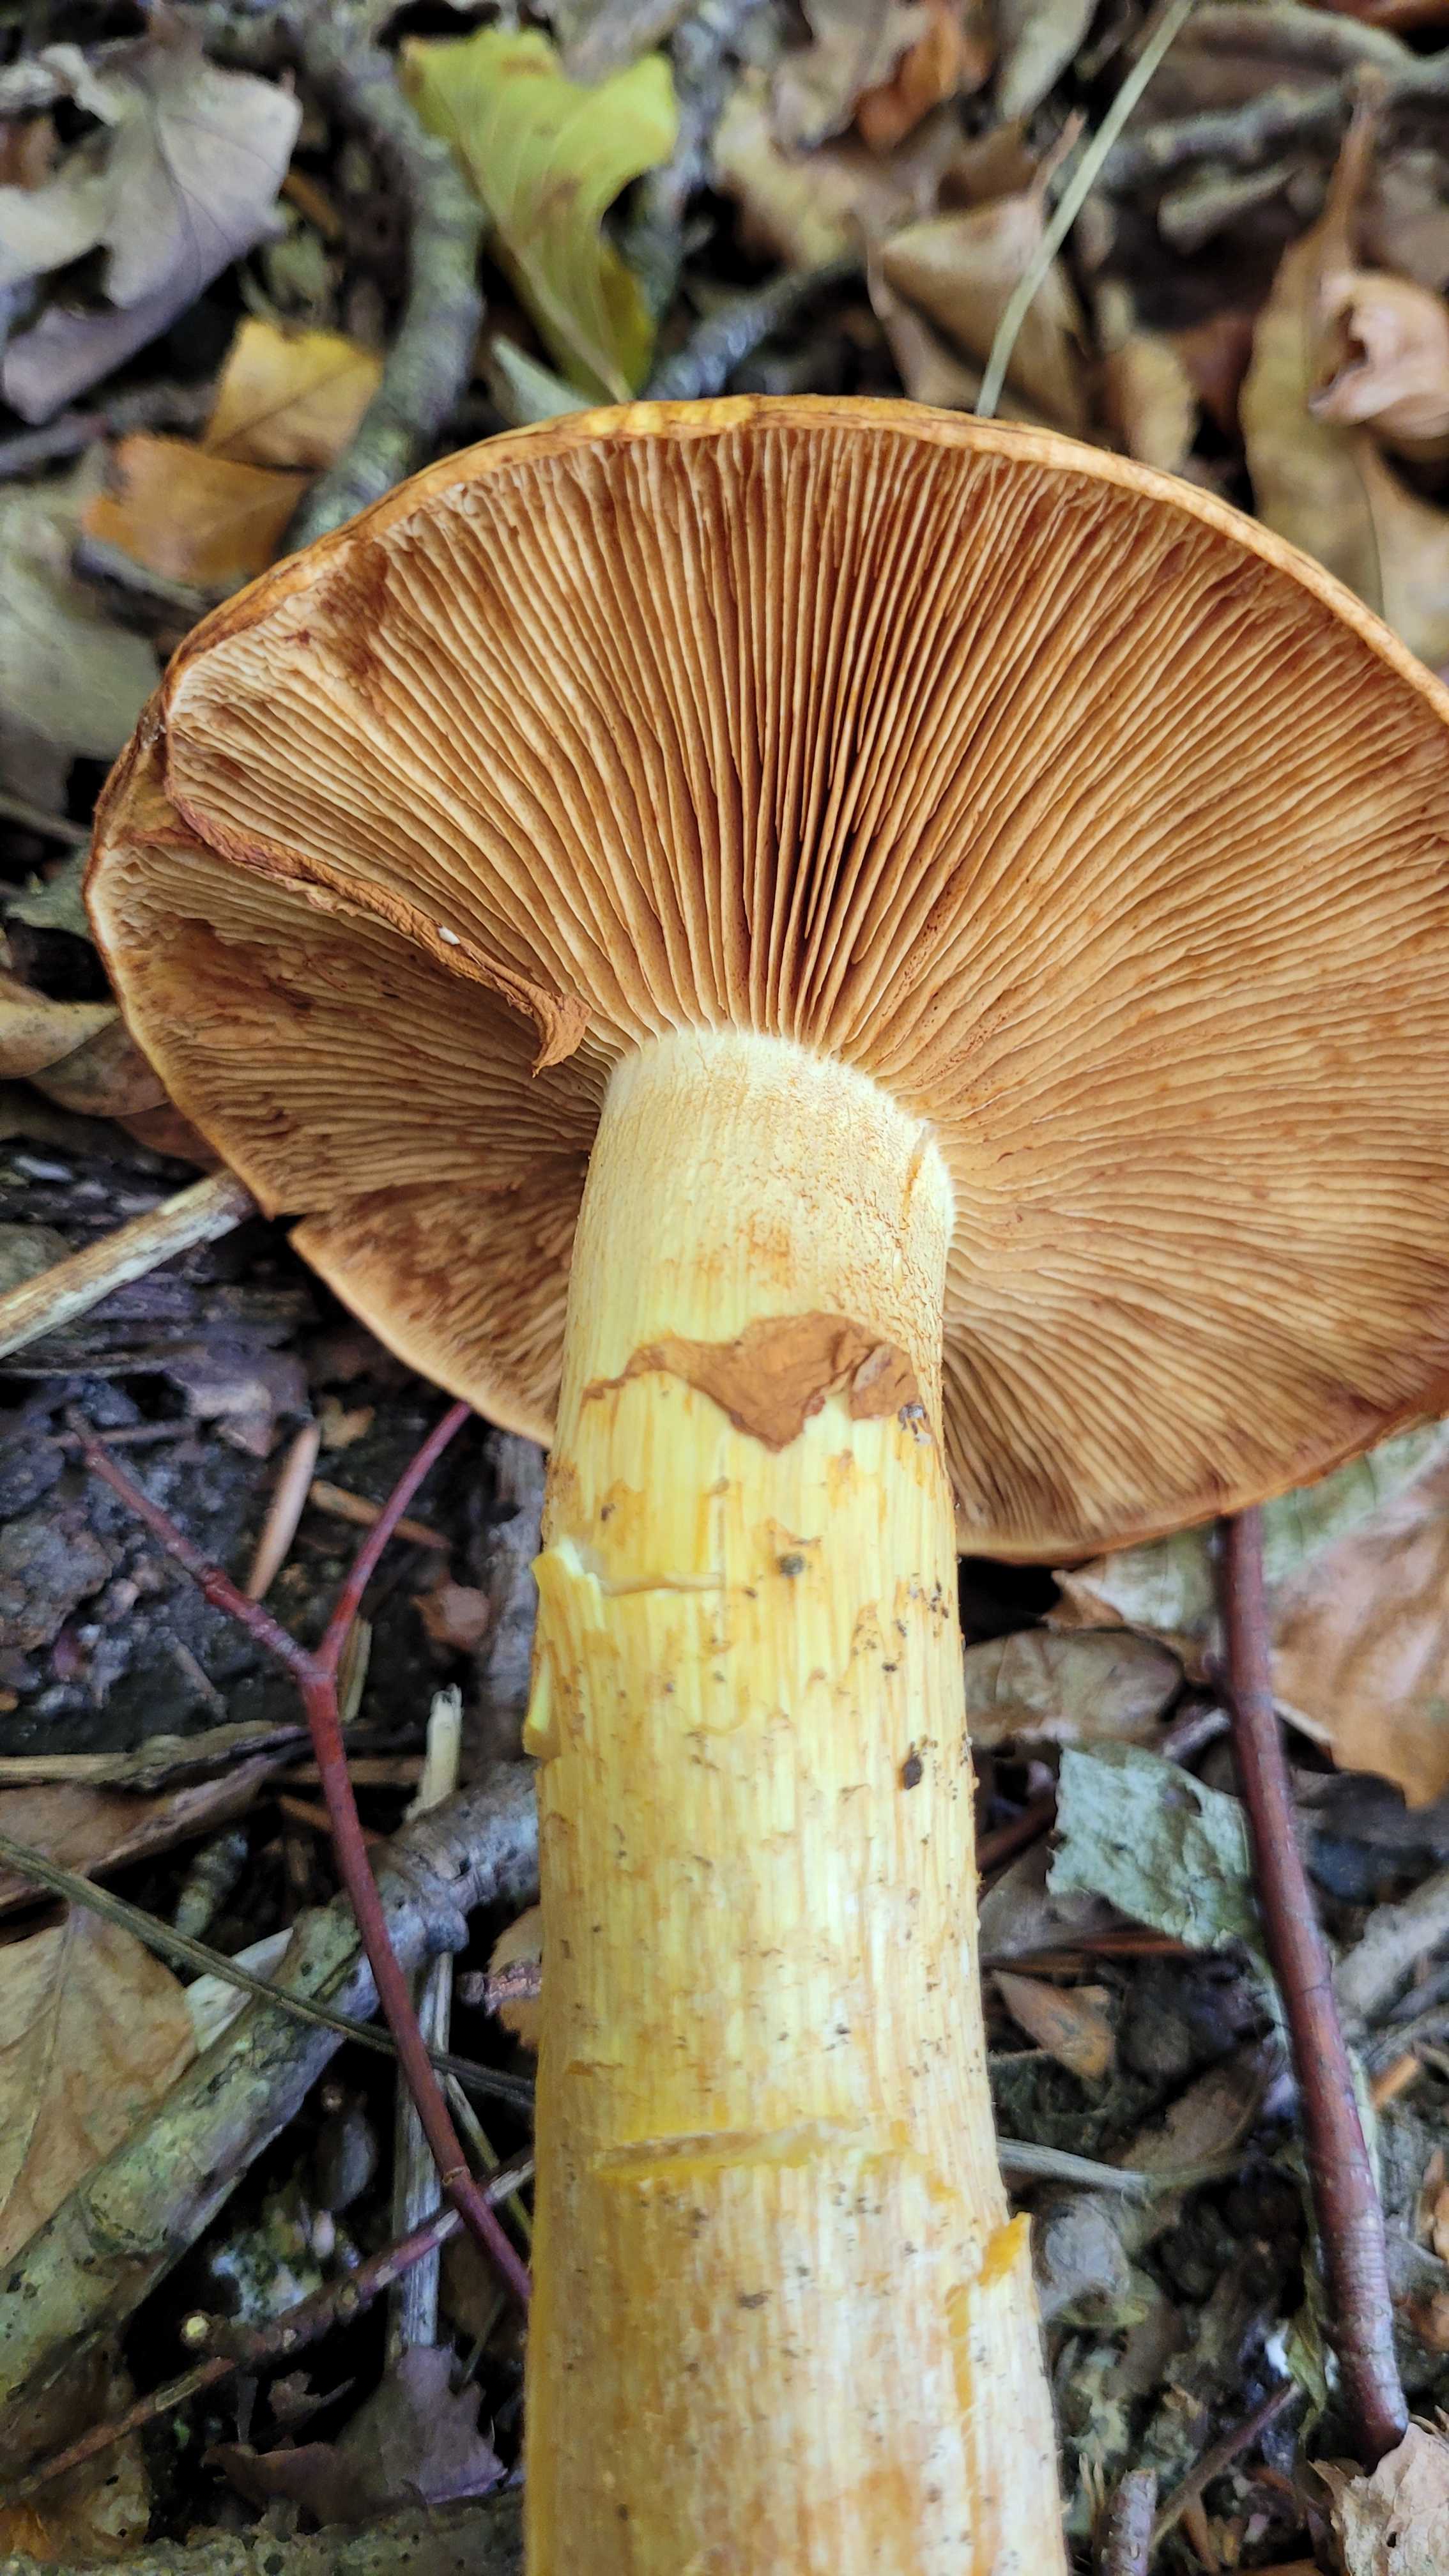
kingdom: Fungi
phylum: Basidiomycota
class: Agaricomycetes
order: Agaricales
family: Hymenogastraceae
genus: Gymnopilus
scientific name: Gymnopilus spectabilis
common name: fibret flammehat
